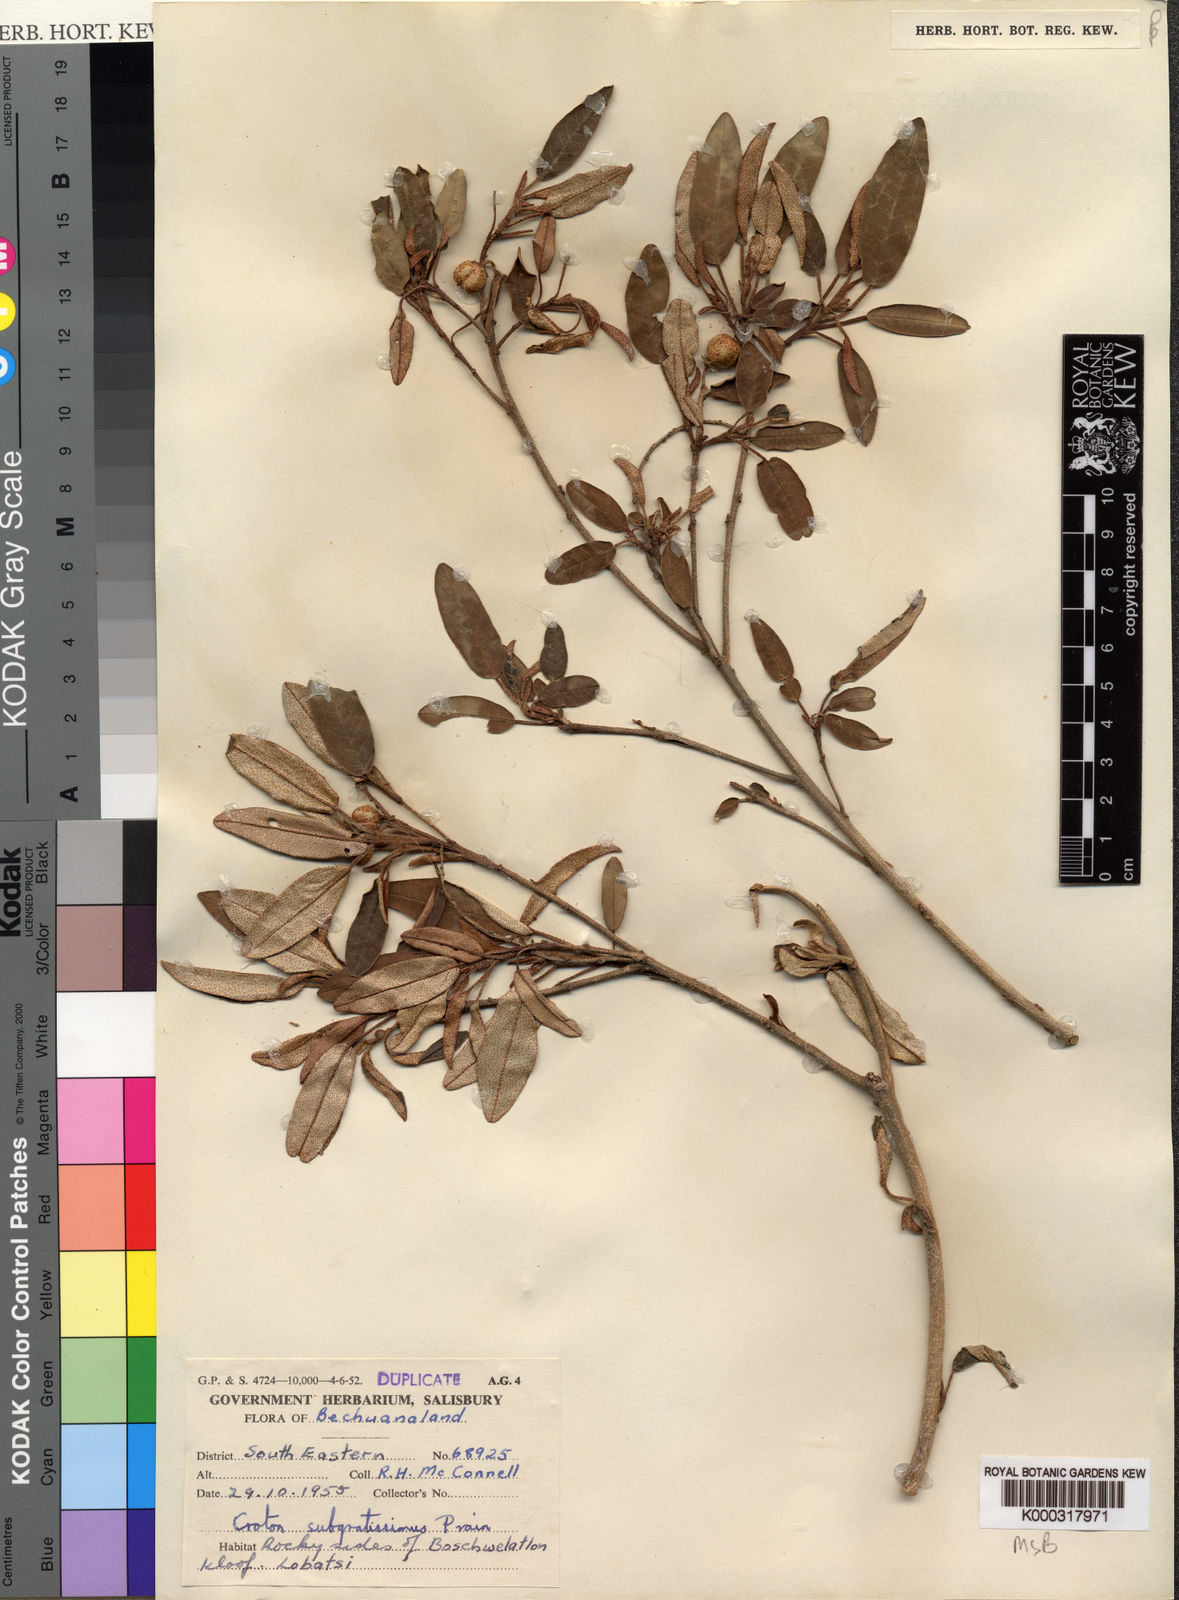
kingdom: Plantae
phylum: Tracheophyta
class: Magnoliopsida
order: Malpighiales
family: Euphorbiaceae
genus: Croton
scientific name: Croton gratissimus
